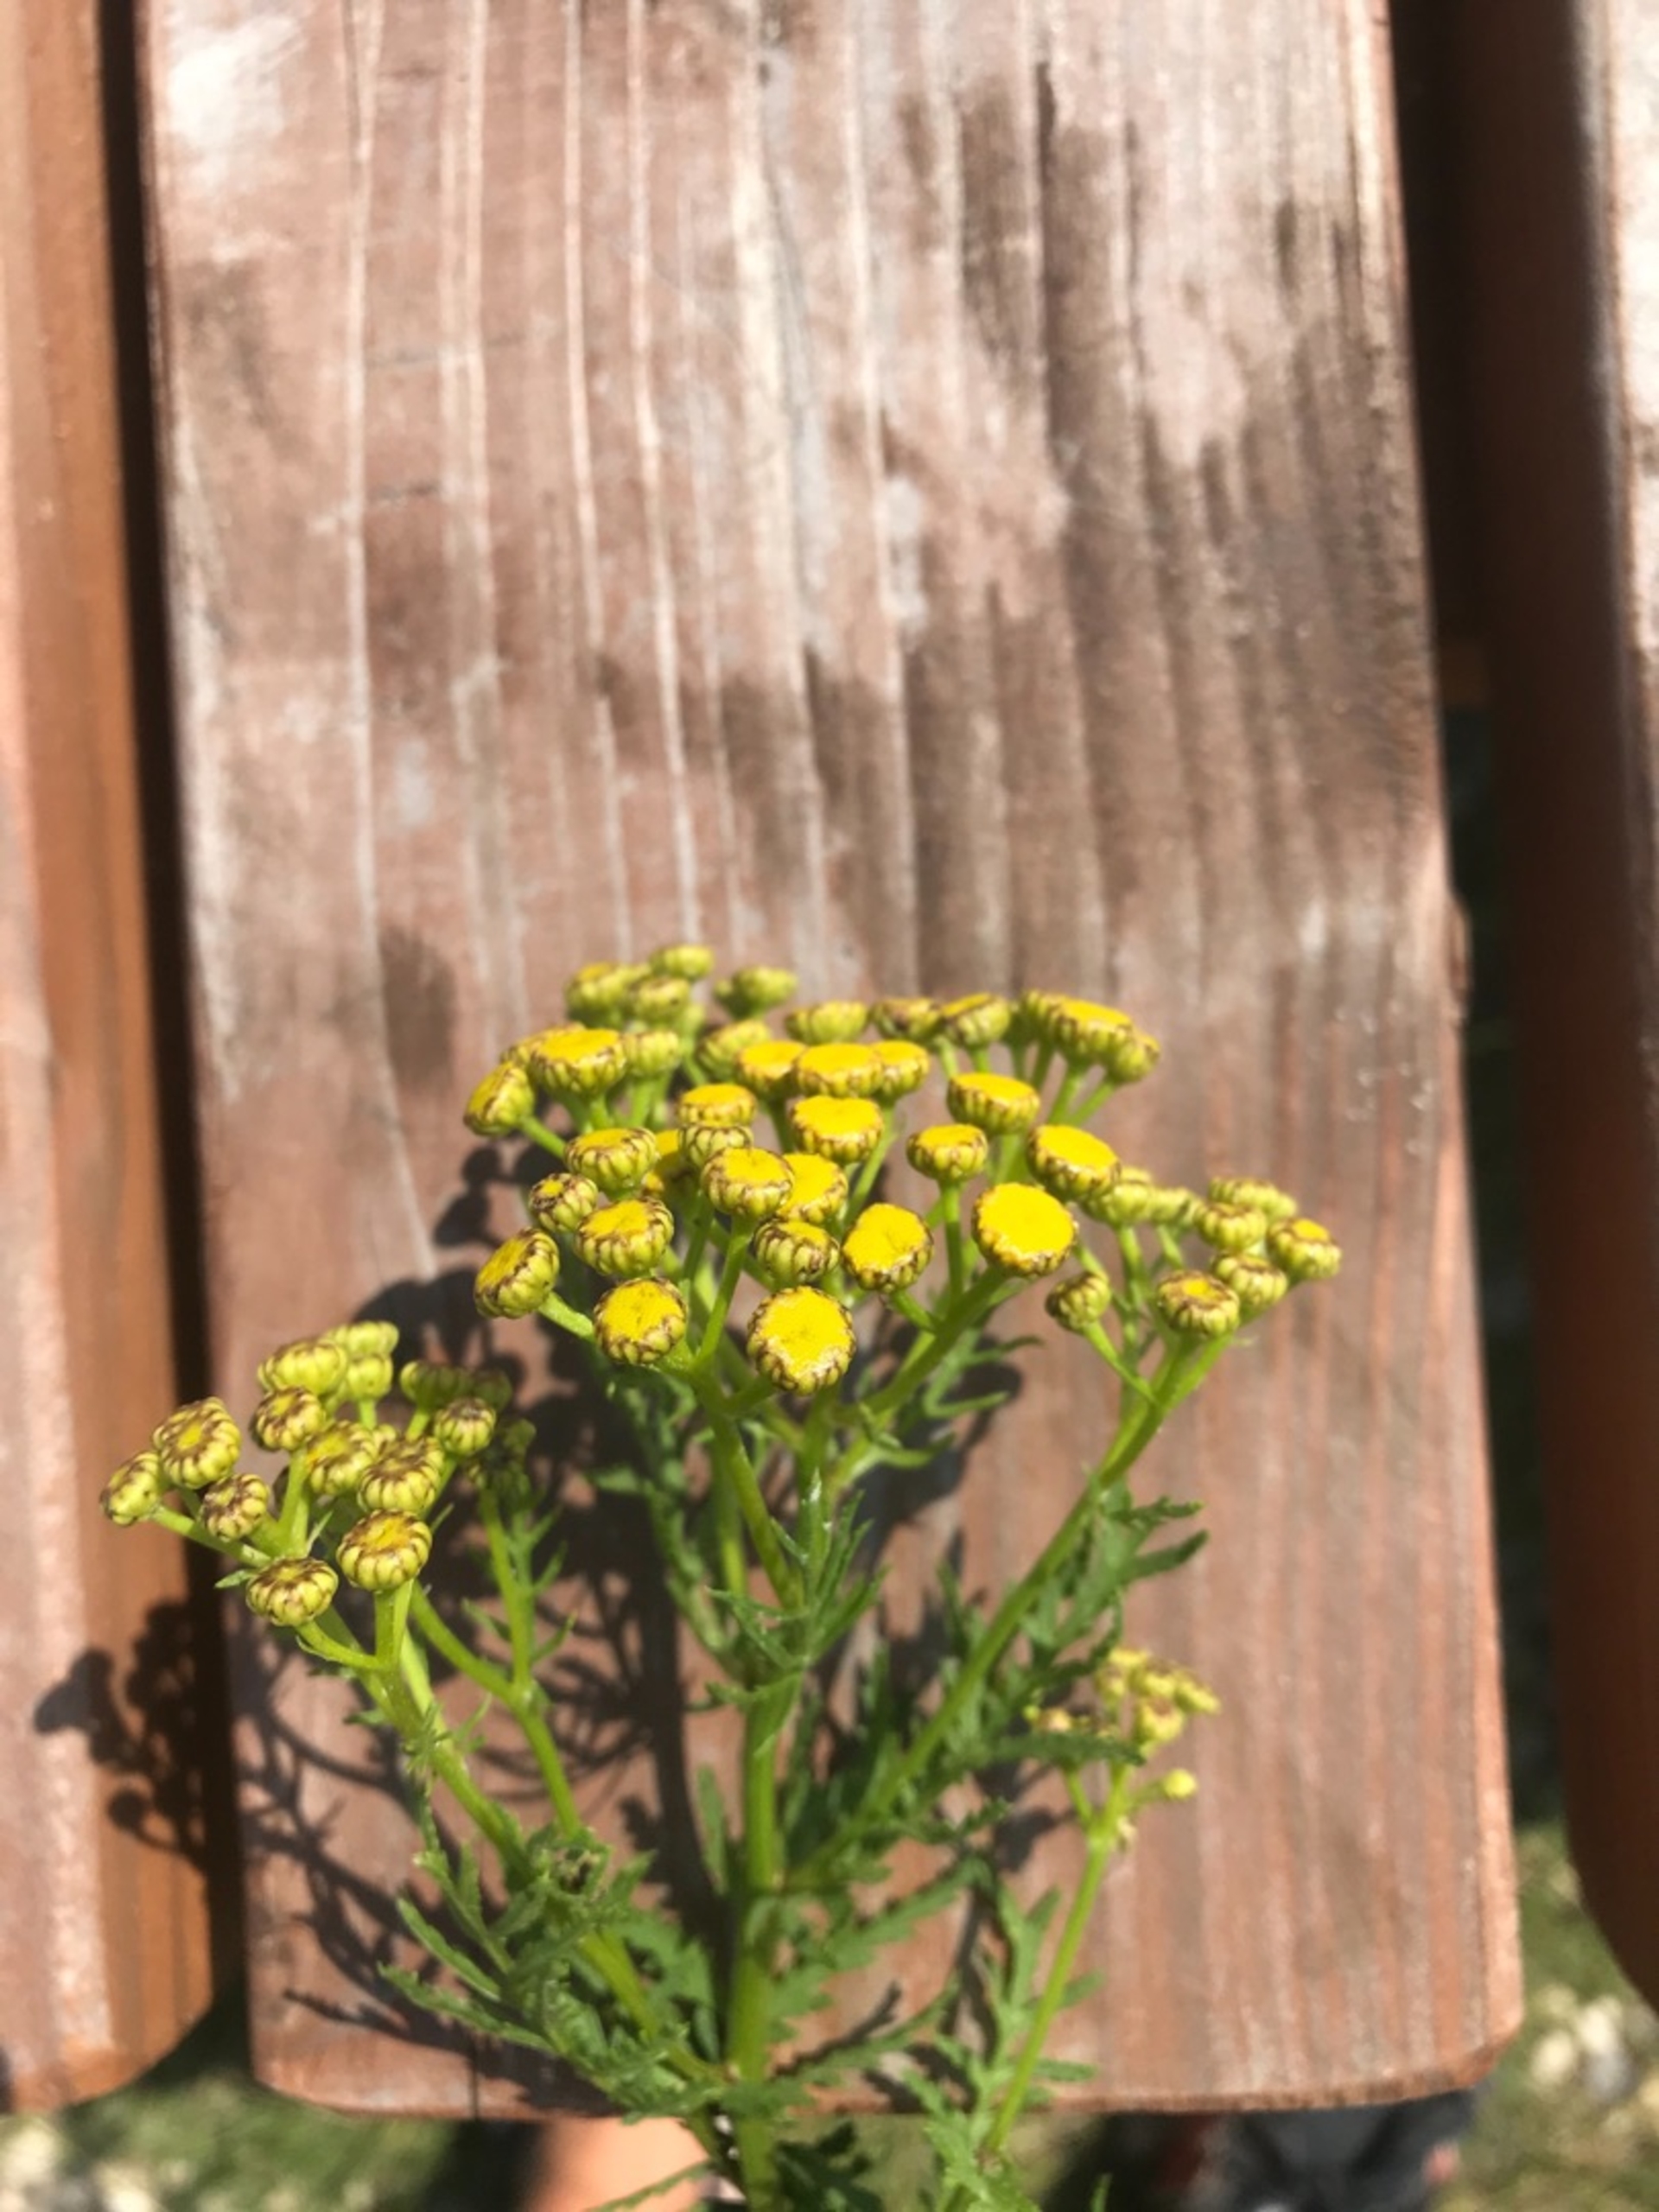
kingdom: Plantae
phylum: Tracheophyta
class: Magnoliopsida
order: Asterales
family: Asteraceae
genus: Tanacetum
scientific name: Tanacetum vulgare
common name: Rejnfan
